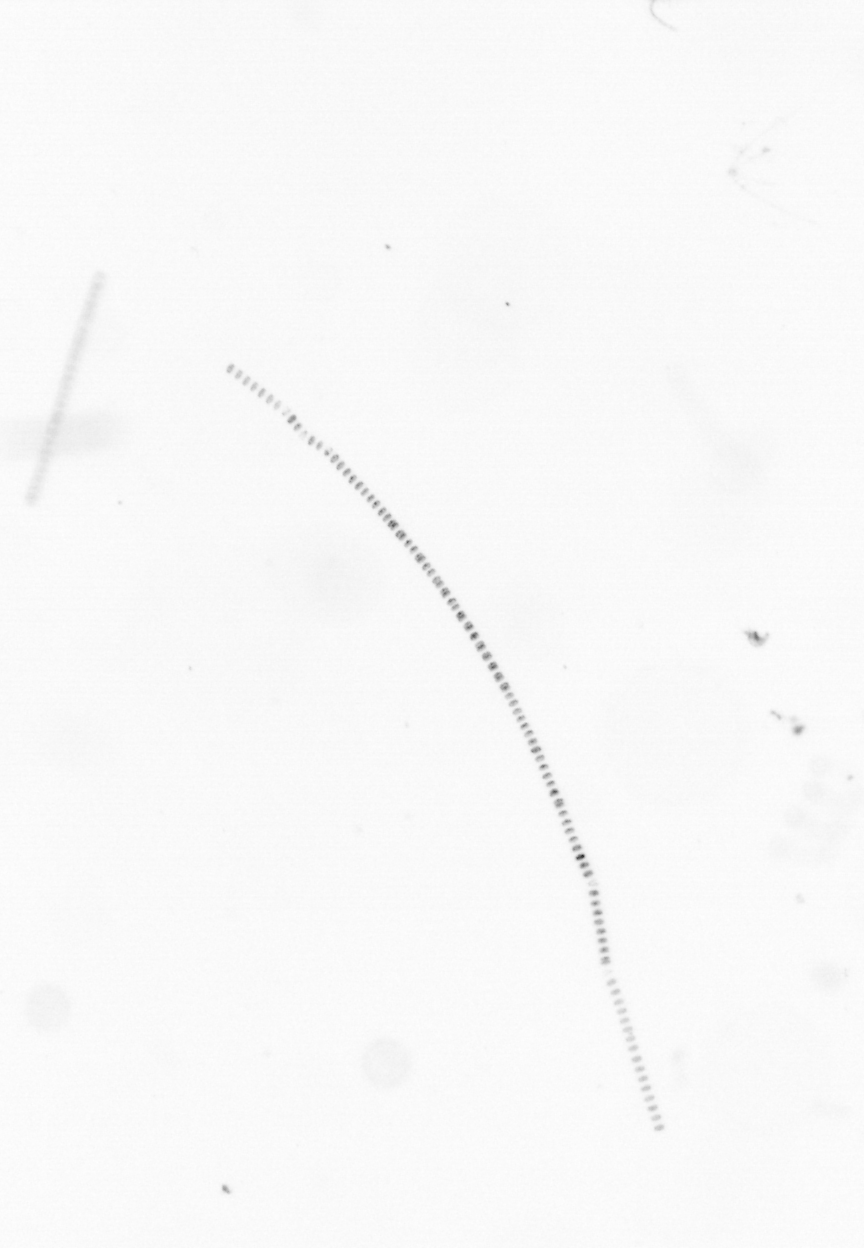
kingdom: Chromista
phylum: Ochrophyta
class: Bacillariophyceae
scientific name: Bacillariophyceae
